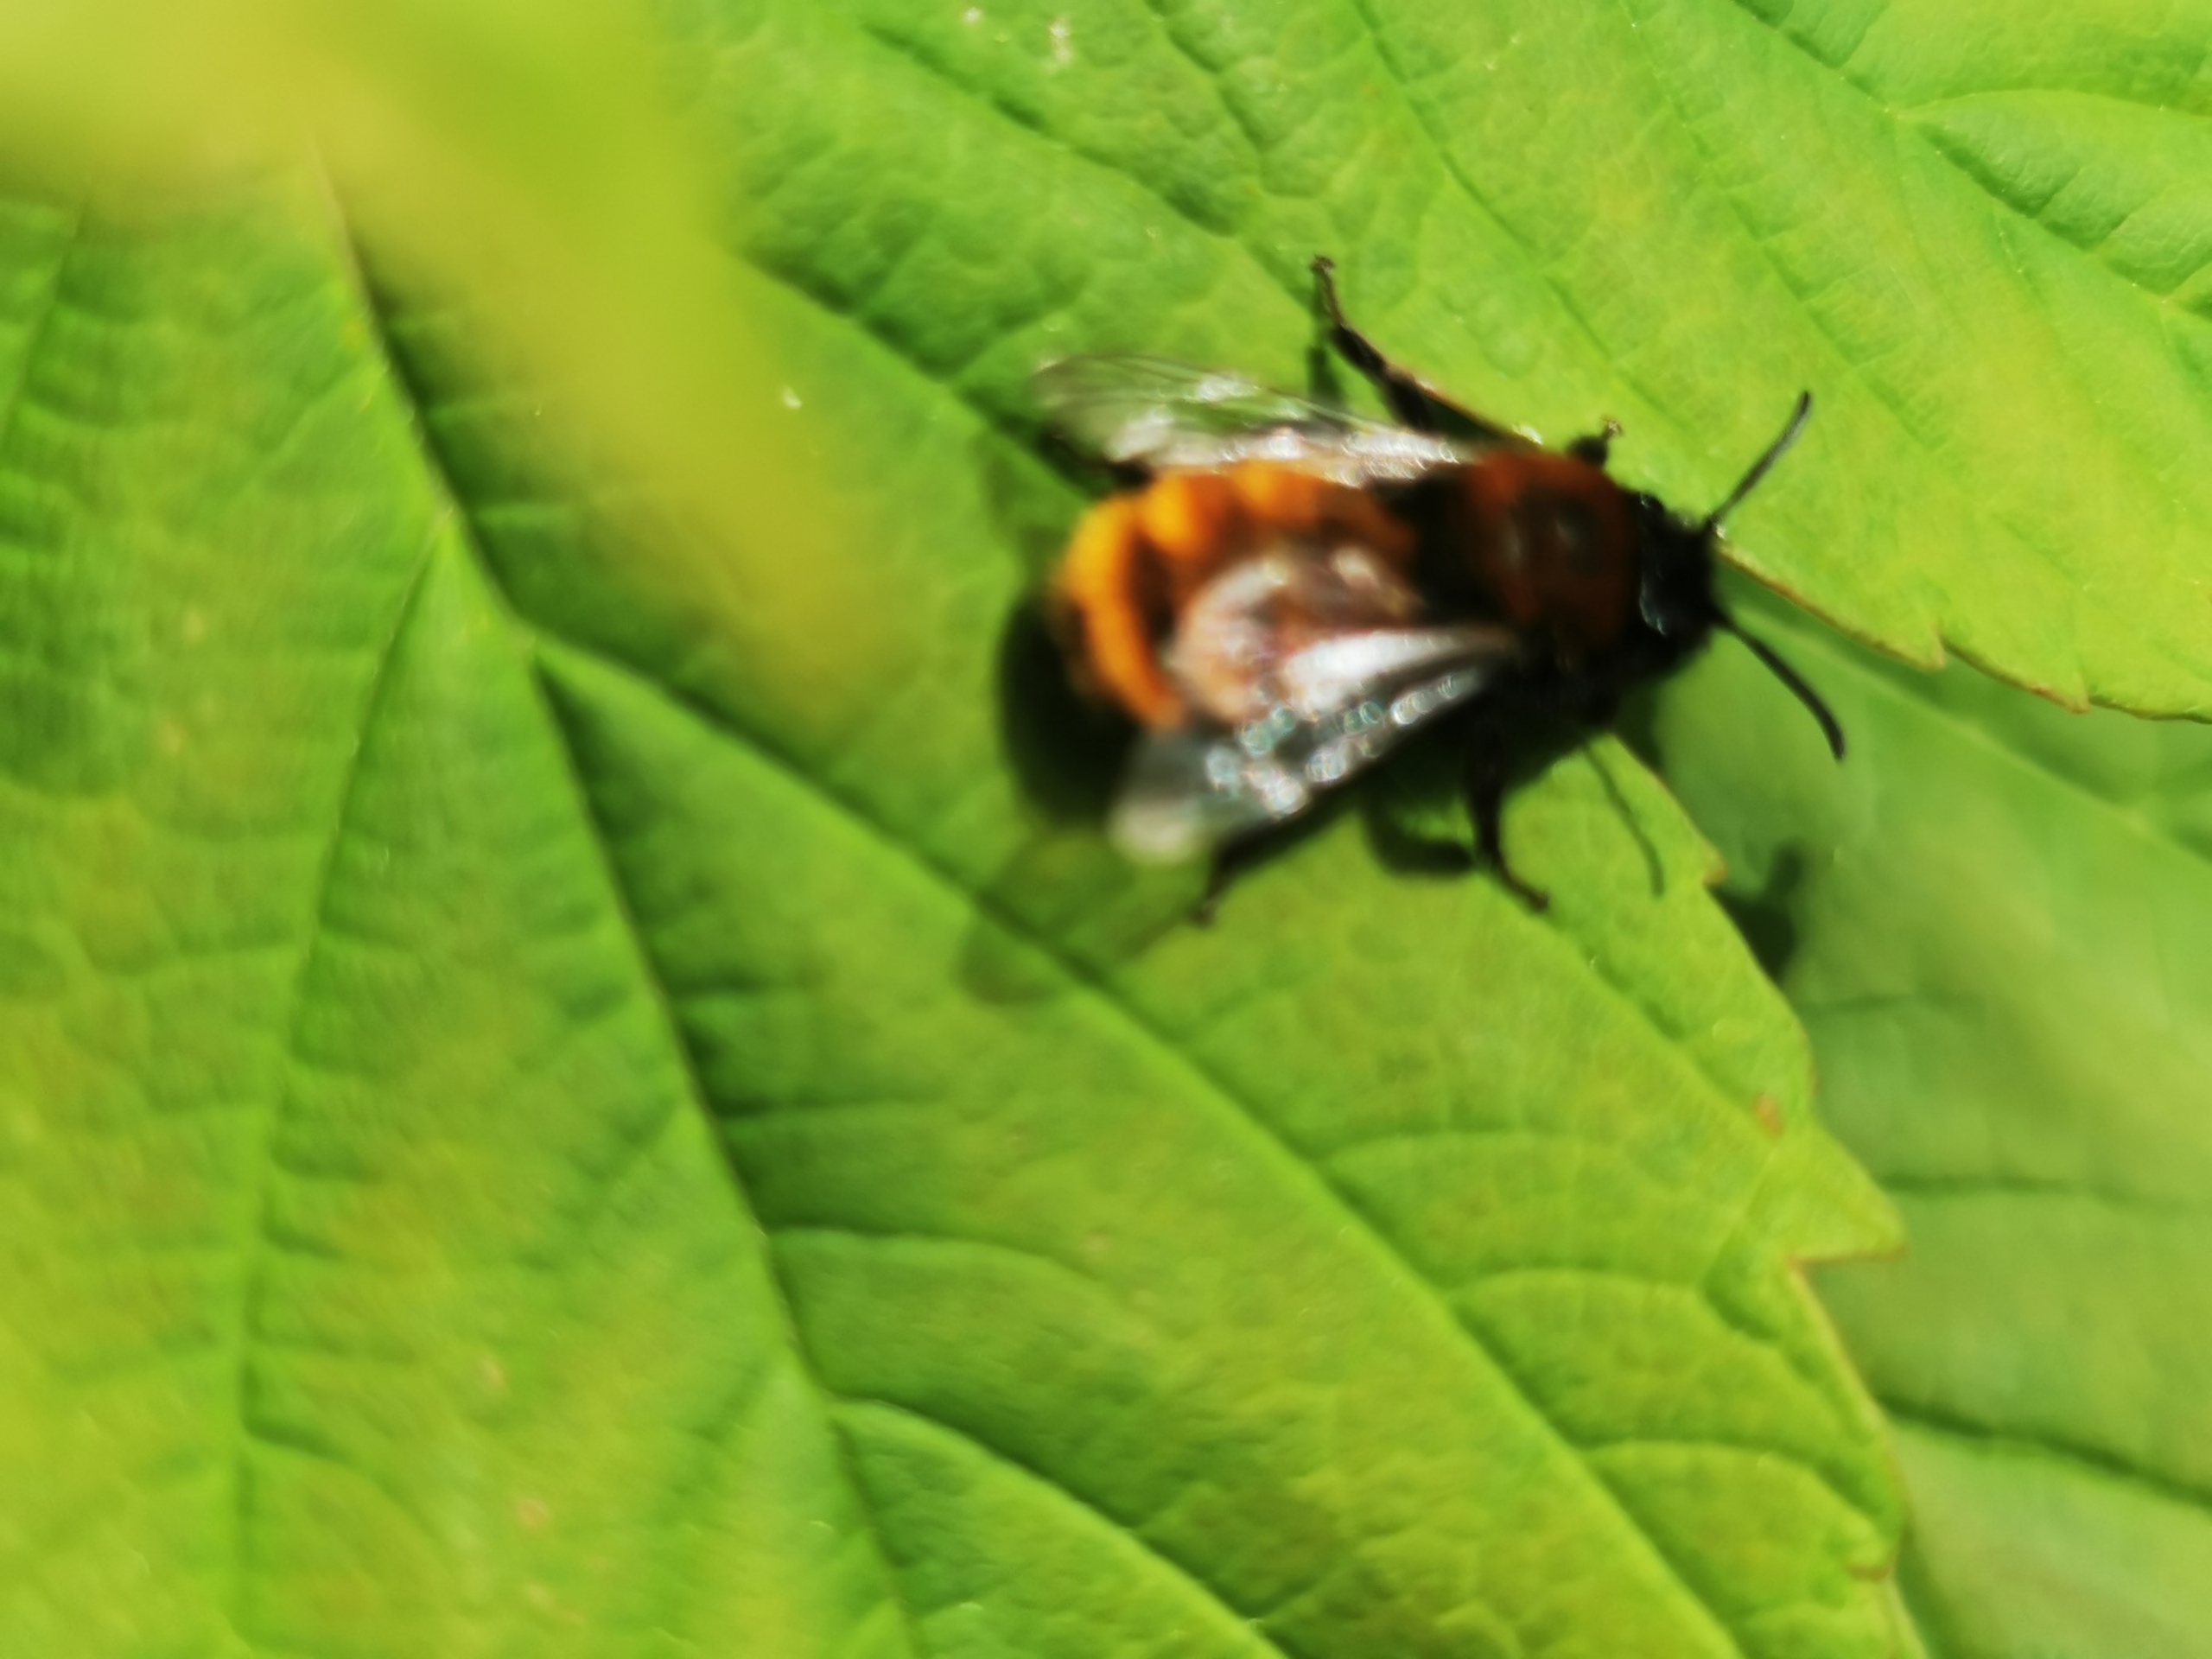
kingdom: Animalia
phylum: Arthropoda
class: Insecta
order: Hymenoptera
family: Andrenidae
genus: Andrena
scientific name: Andrena fulva
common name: Rødpelset jordbi
